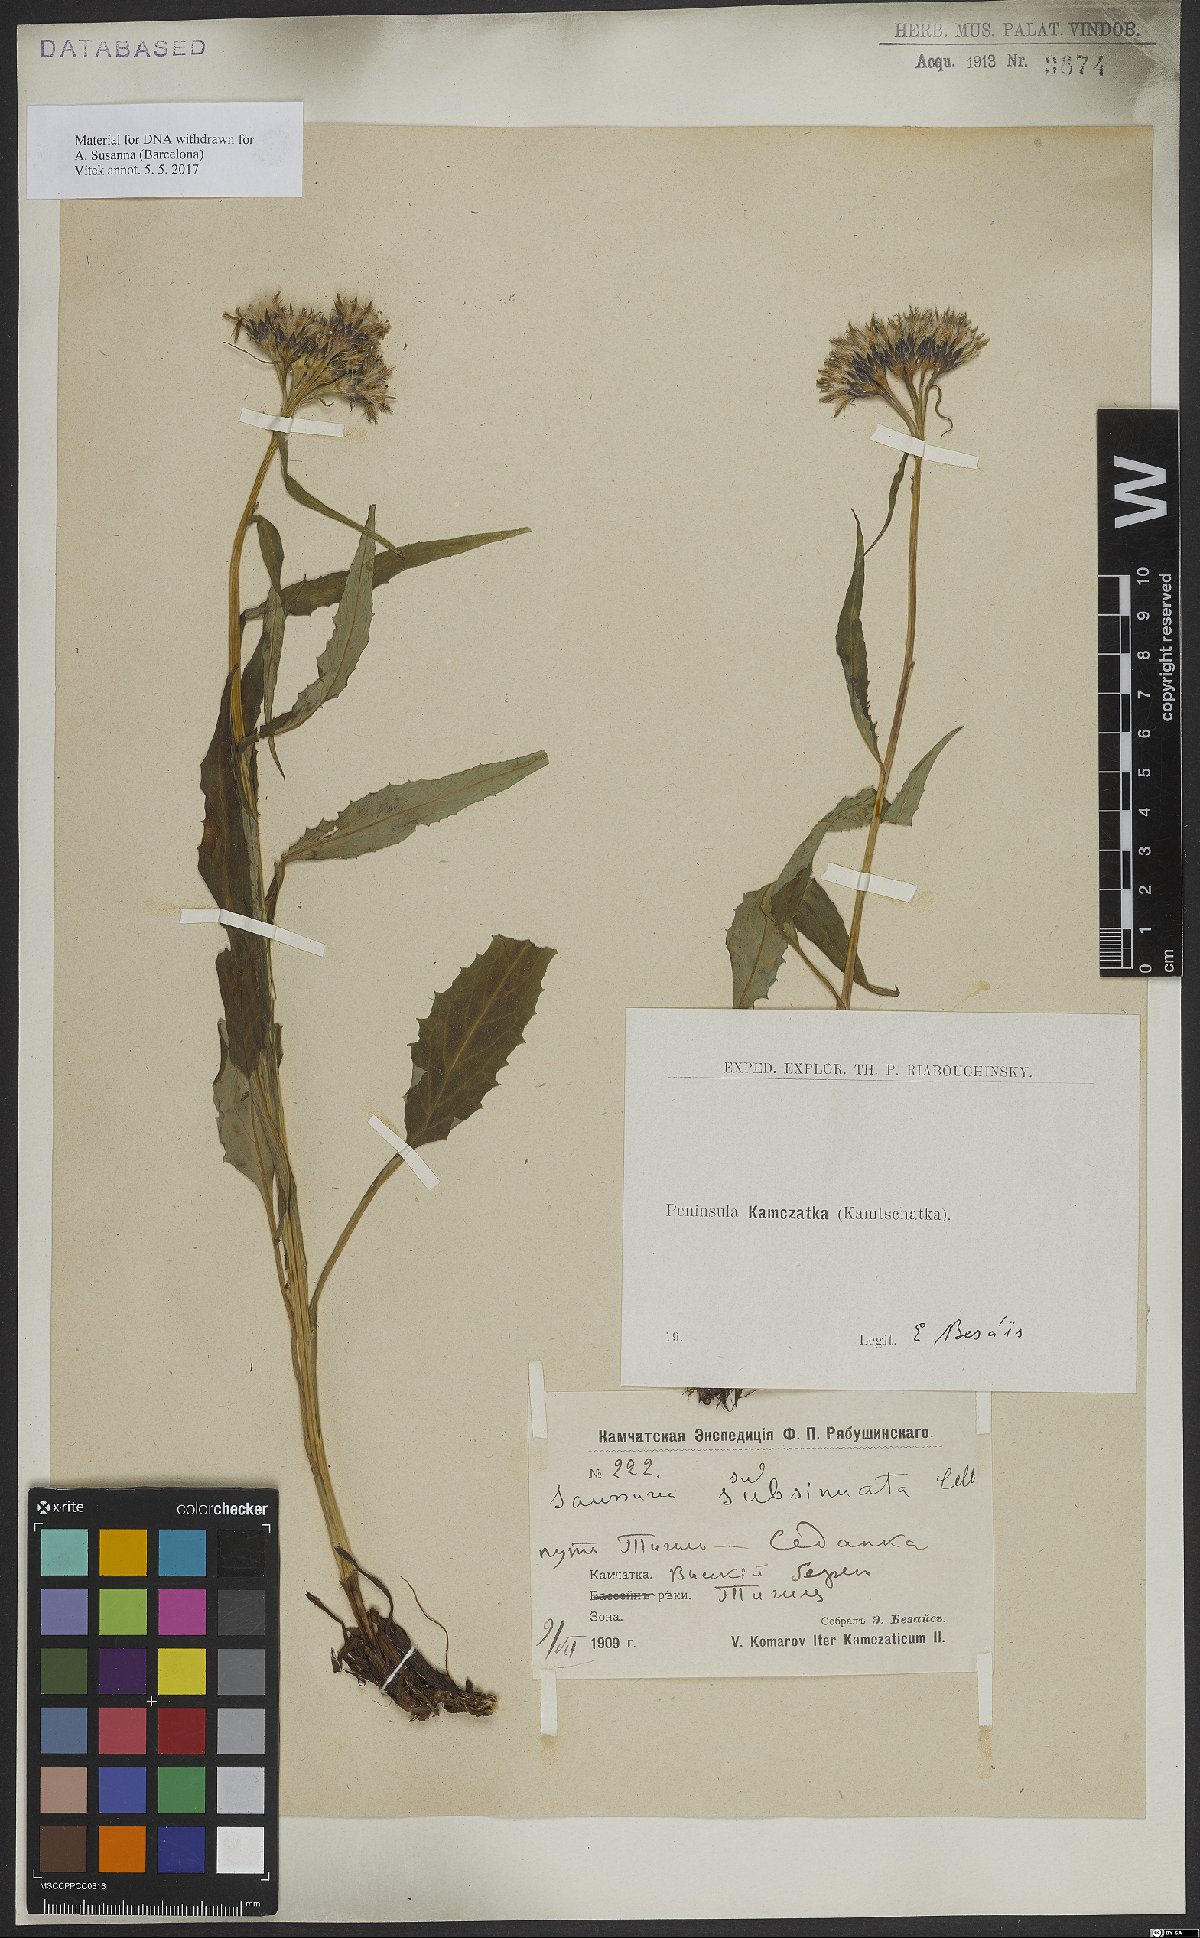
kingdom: Plantae
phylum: Tracheophyta
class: Magnoliopsida
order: Asterales
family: Asteraceae
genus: Saussurea
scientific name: Saussurea alpina
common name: Alpine saw-wort
